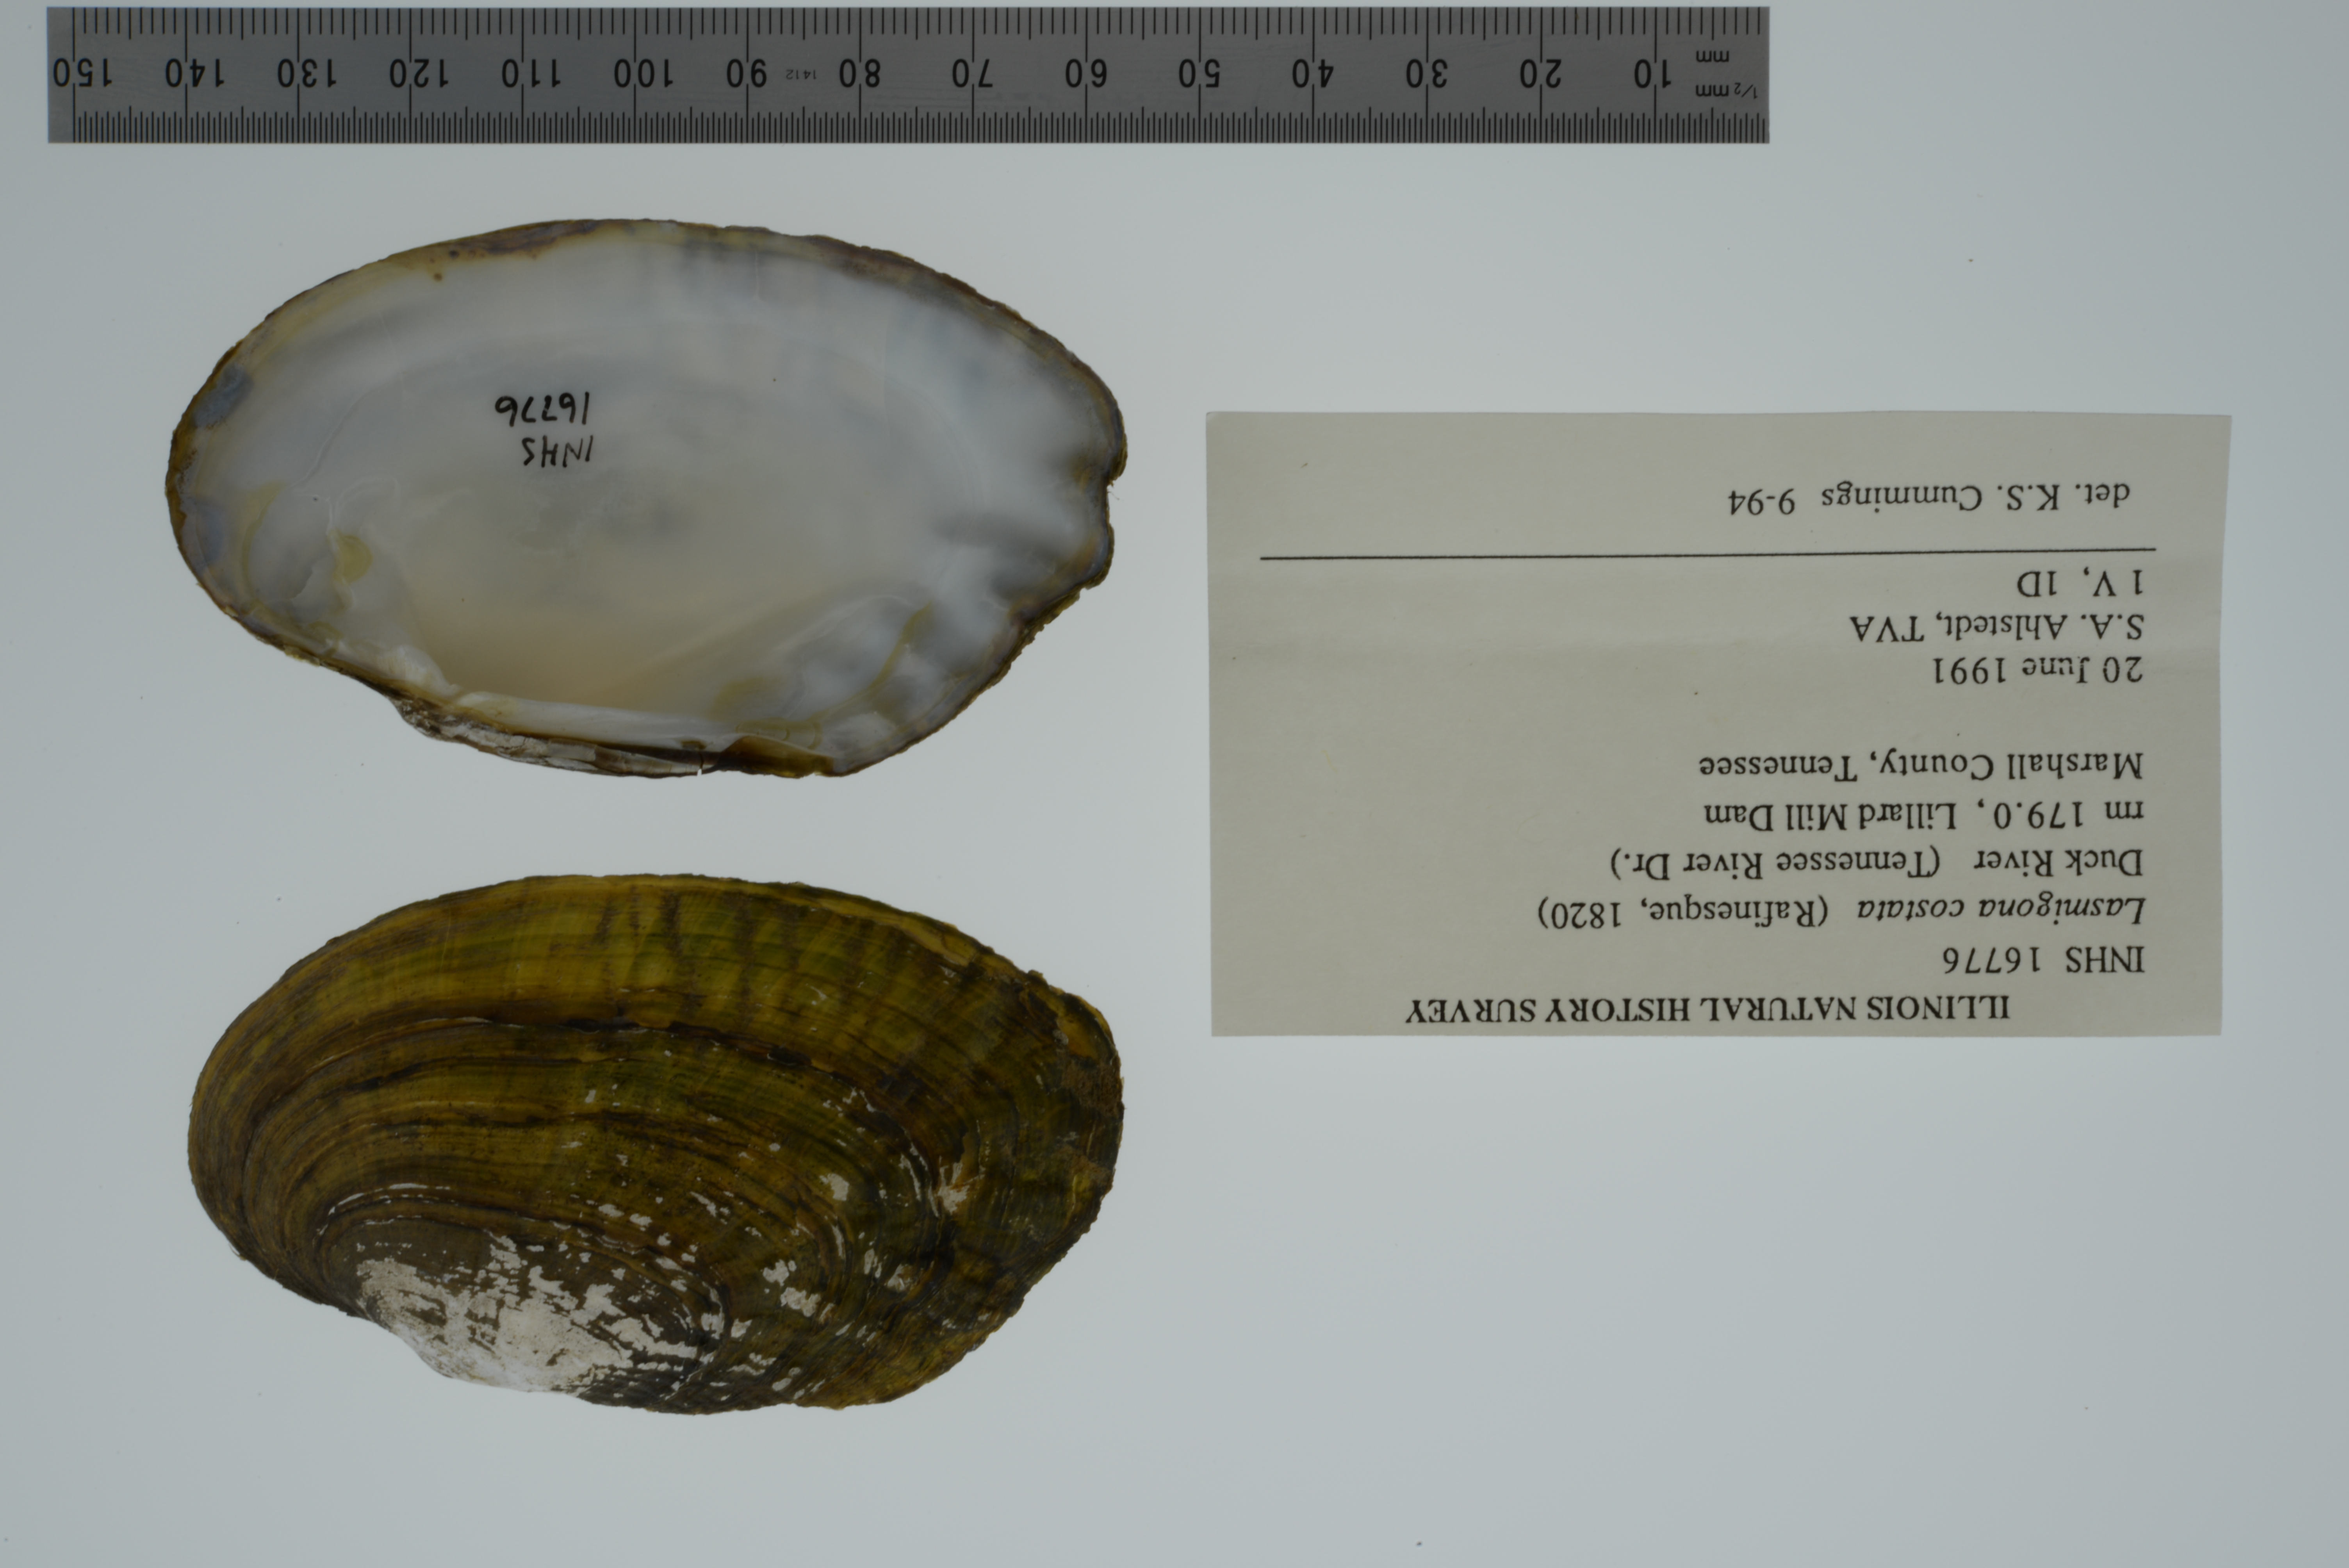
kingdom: Animalia
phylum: Mollusca
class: Bivalvia
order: Unionida
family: Unionidae
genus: Lasmigona
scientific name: Lasmigona costata
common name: Flutedshell
